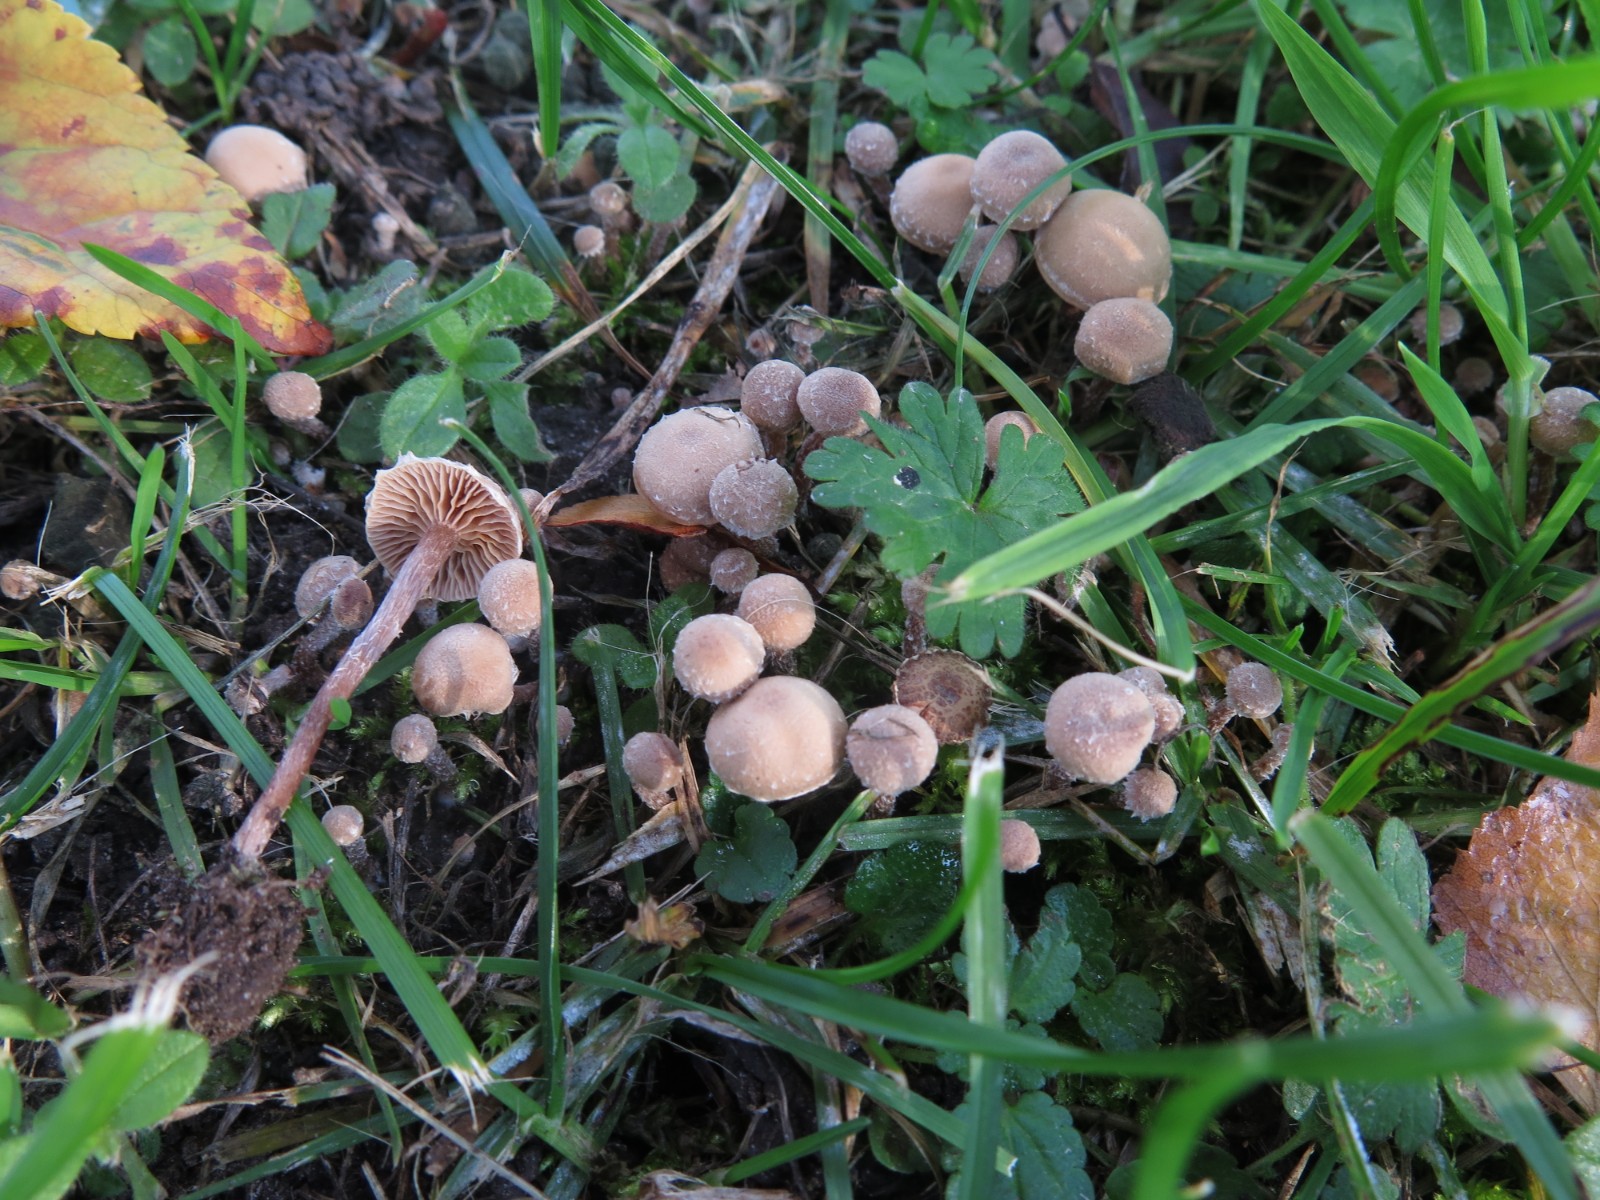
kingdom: Fungi
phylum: Basidiomycota
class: Agaricomycetes
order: Agaricales
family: Tubariaceae
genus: Tubaria
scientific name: Tubaria conspersa
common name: bleg fnughat
